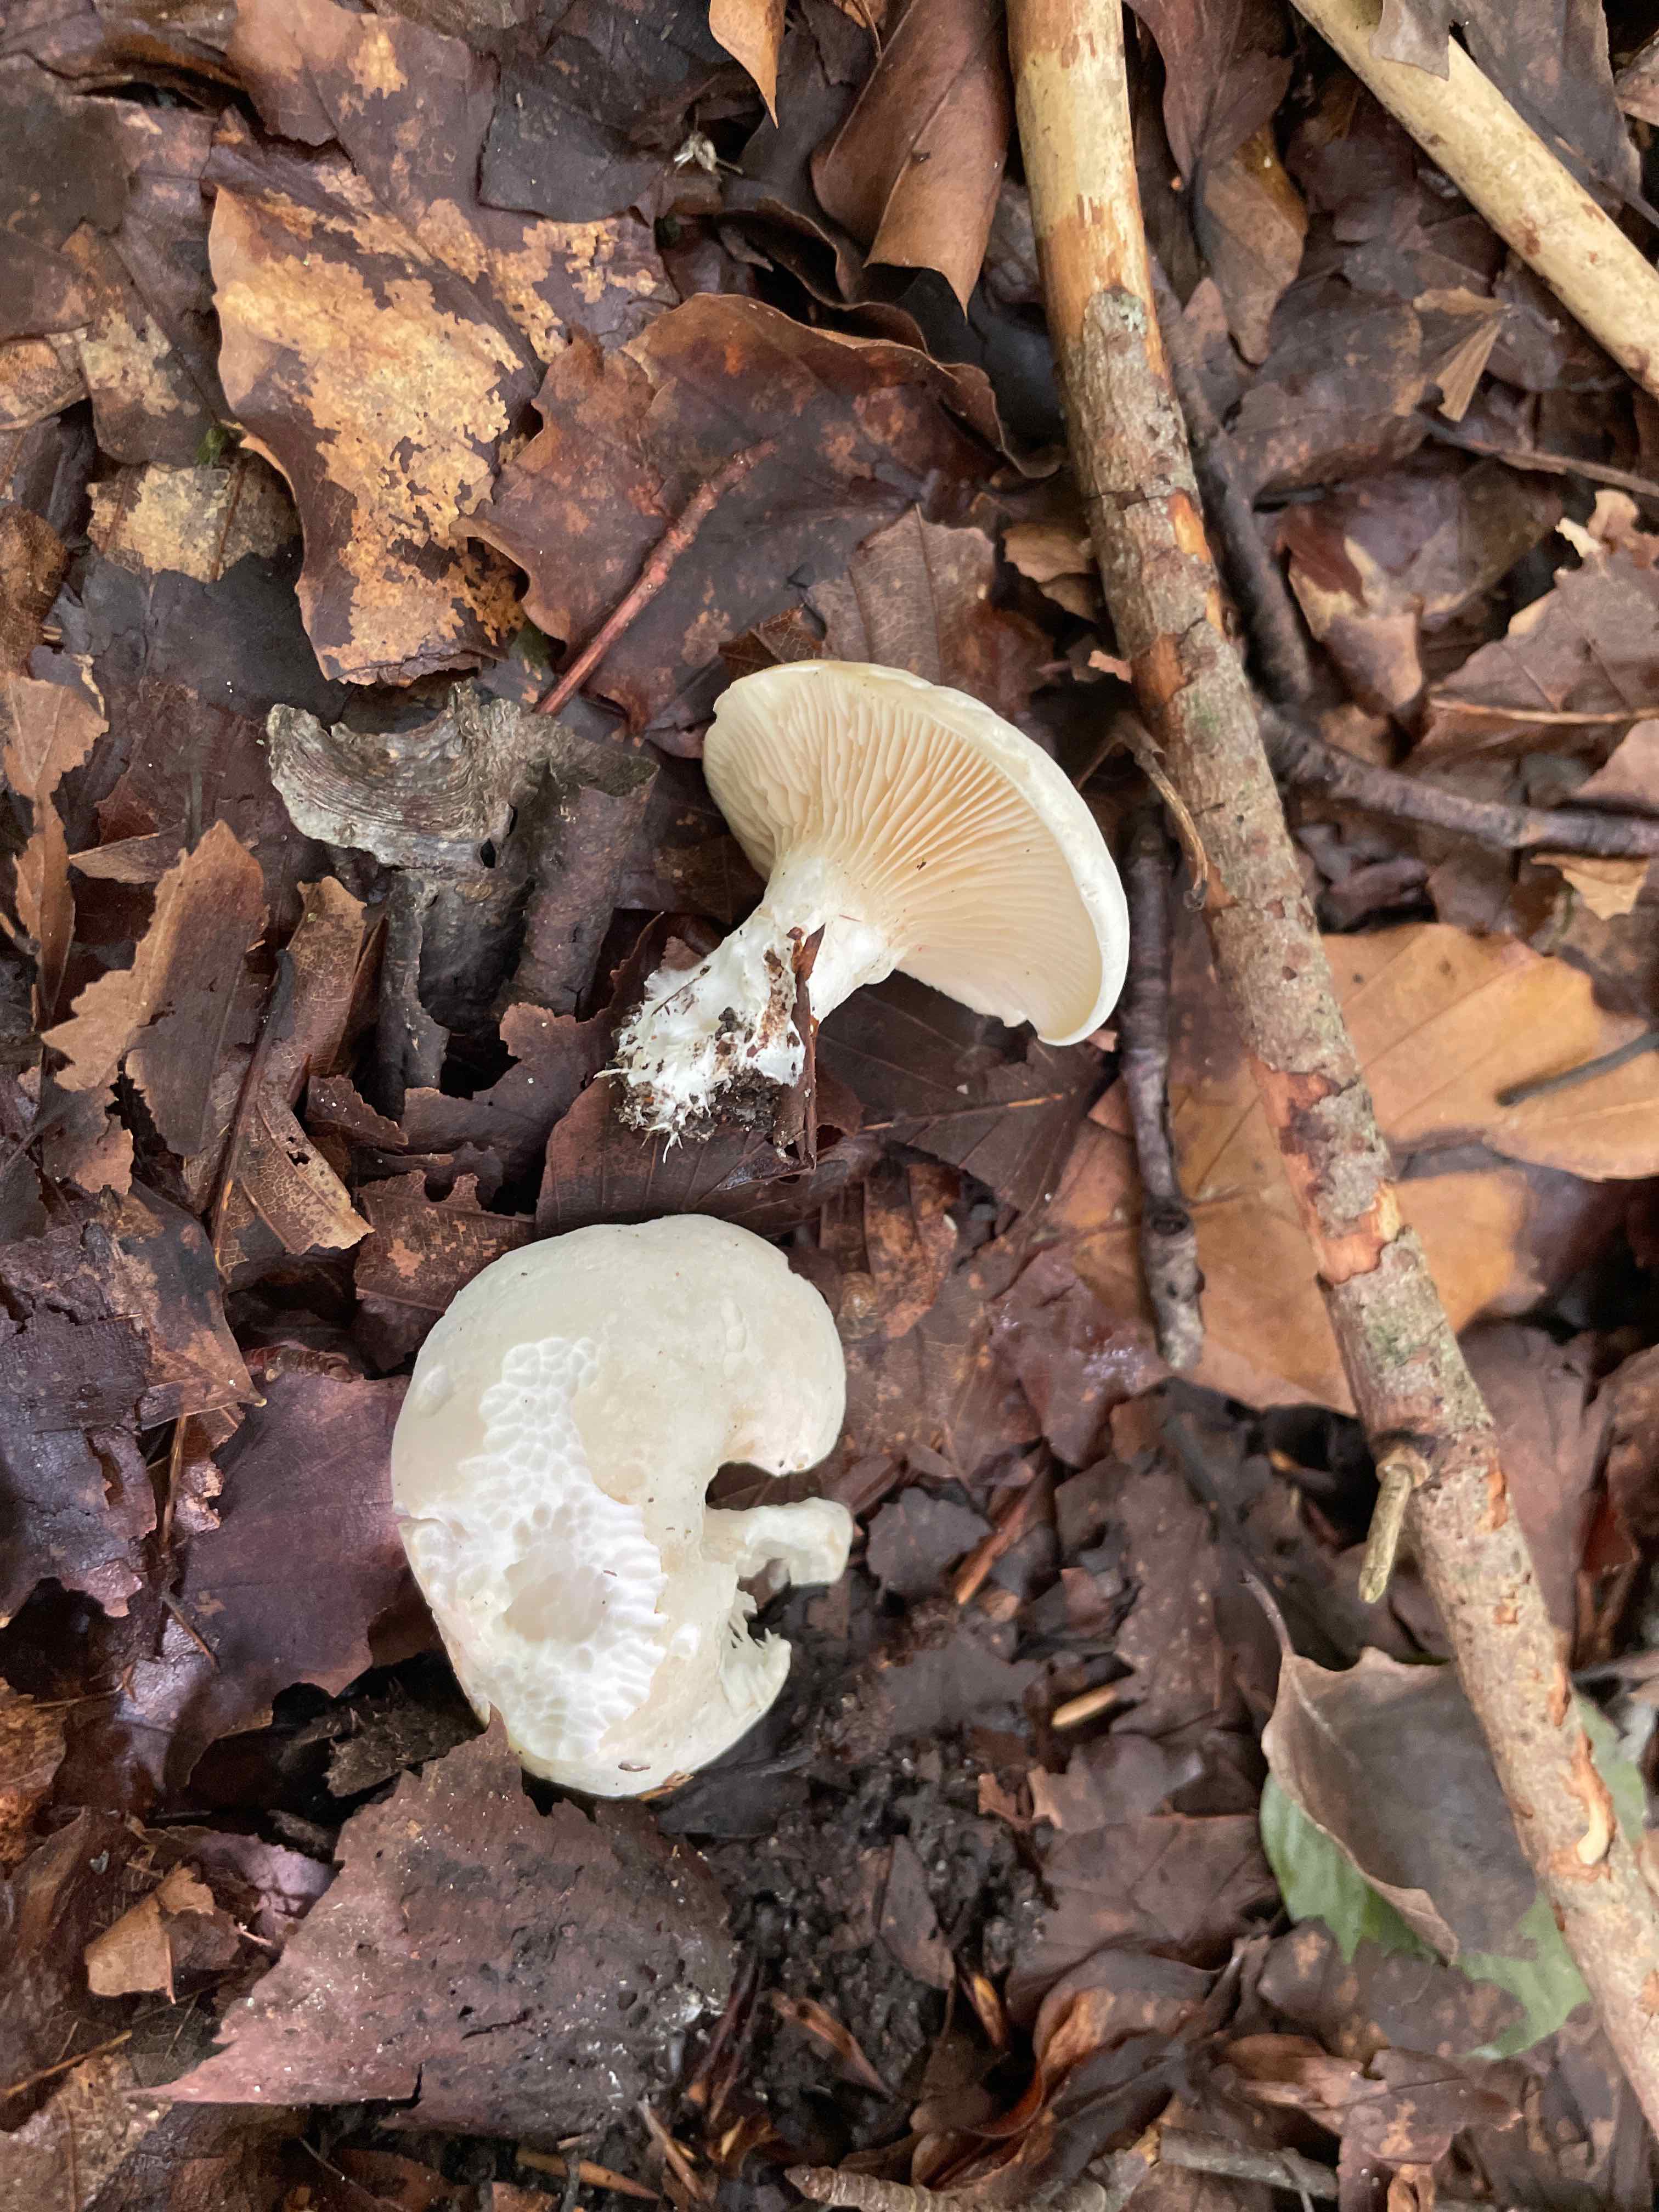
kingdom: Fungi
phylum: Basidiomycota
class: Agaricomycetes
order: Agaricales
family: Entolomataceae
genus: Clitopilus
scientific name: Clitopilus prunulus
